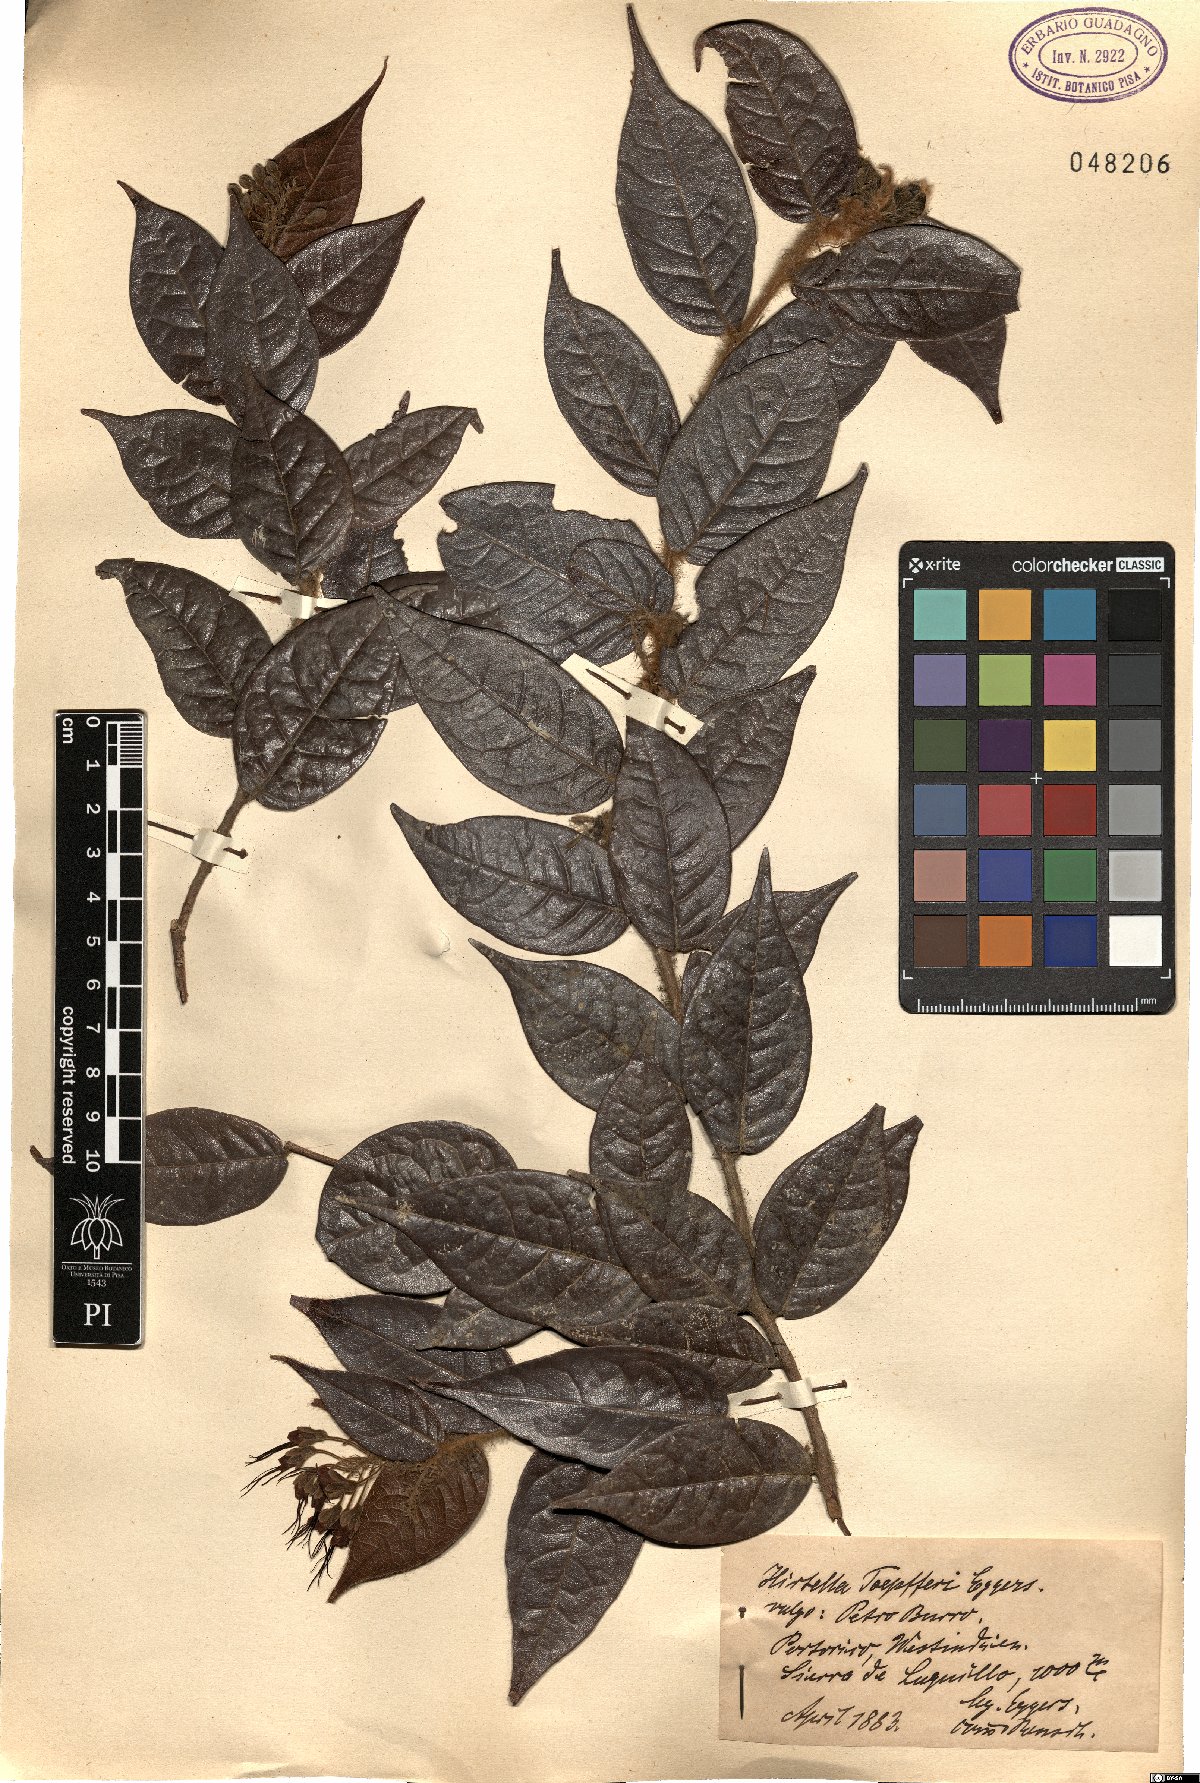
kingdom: Plantae
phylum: Tracheophyta
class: Magnoliopsida
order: Malpighiales
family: Chrysobalanaceae
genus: Hirtella
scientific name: Hirtella
